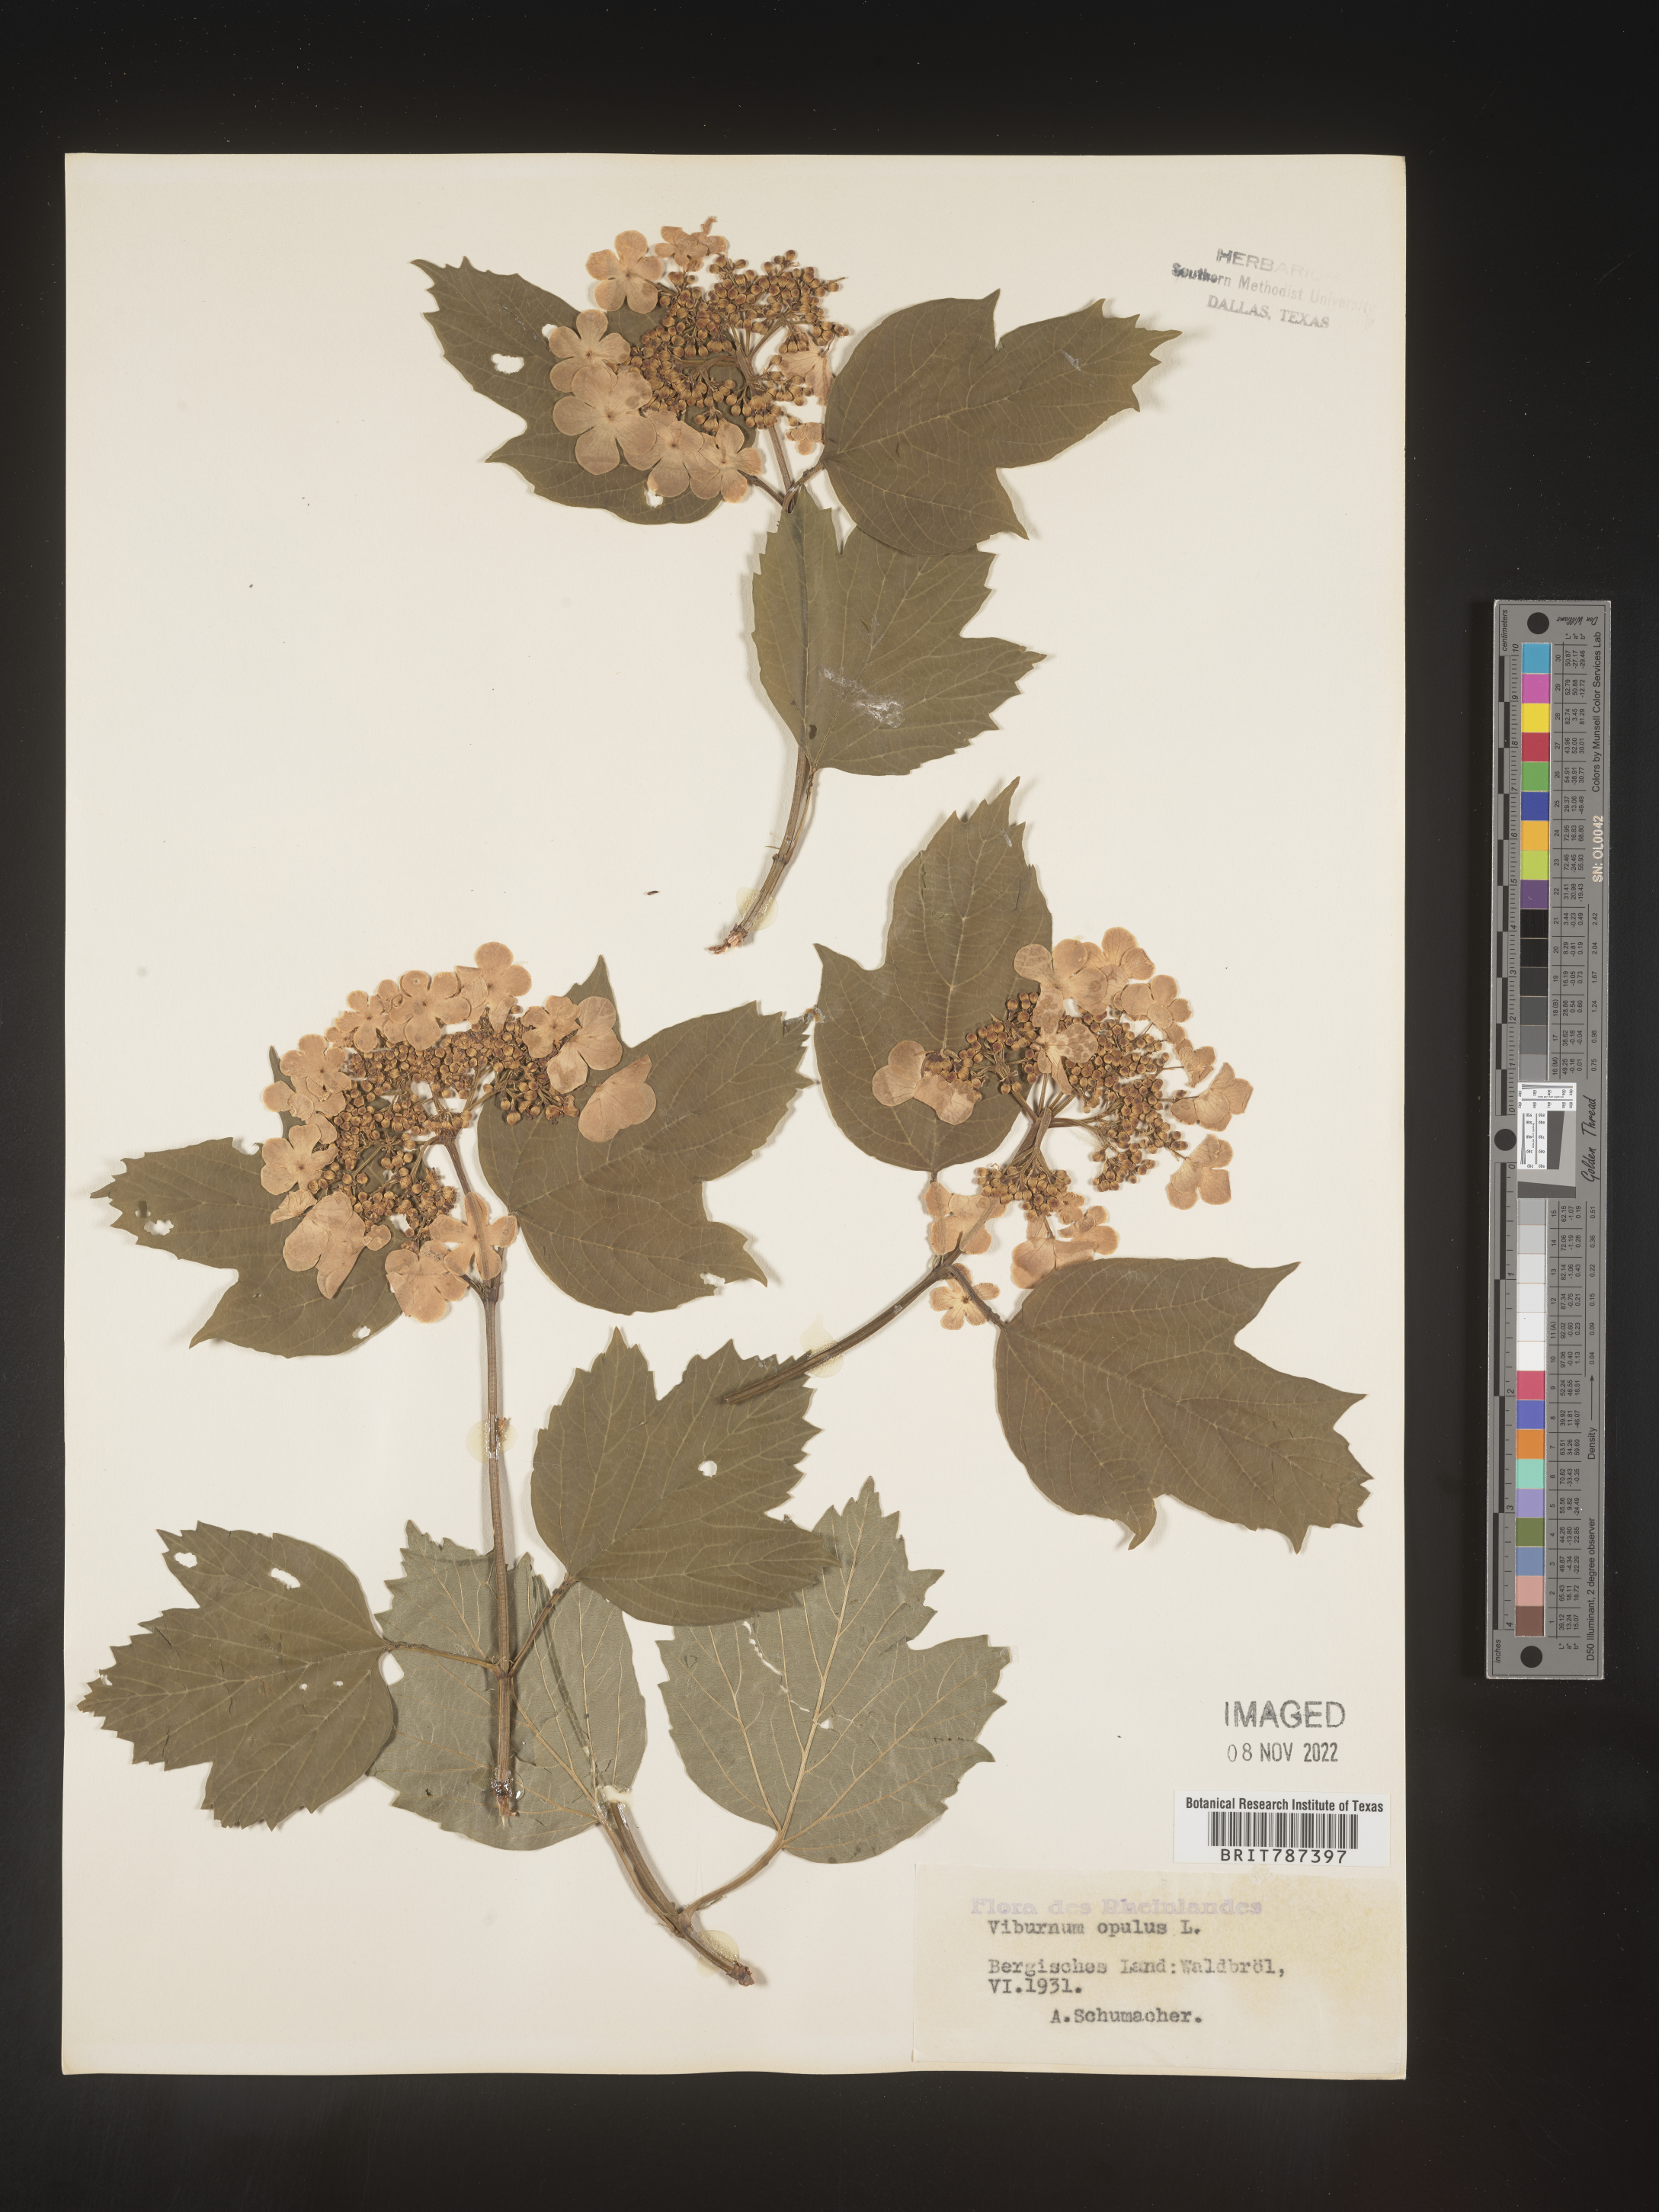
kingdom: Plantae
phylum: Tracheophyta
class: Magnoliopsida
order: Dipsacales
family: Viburnaceae
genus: Viburnum
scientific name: Viburnum opulus
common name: Guelder-rose
